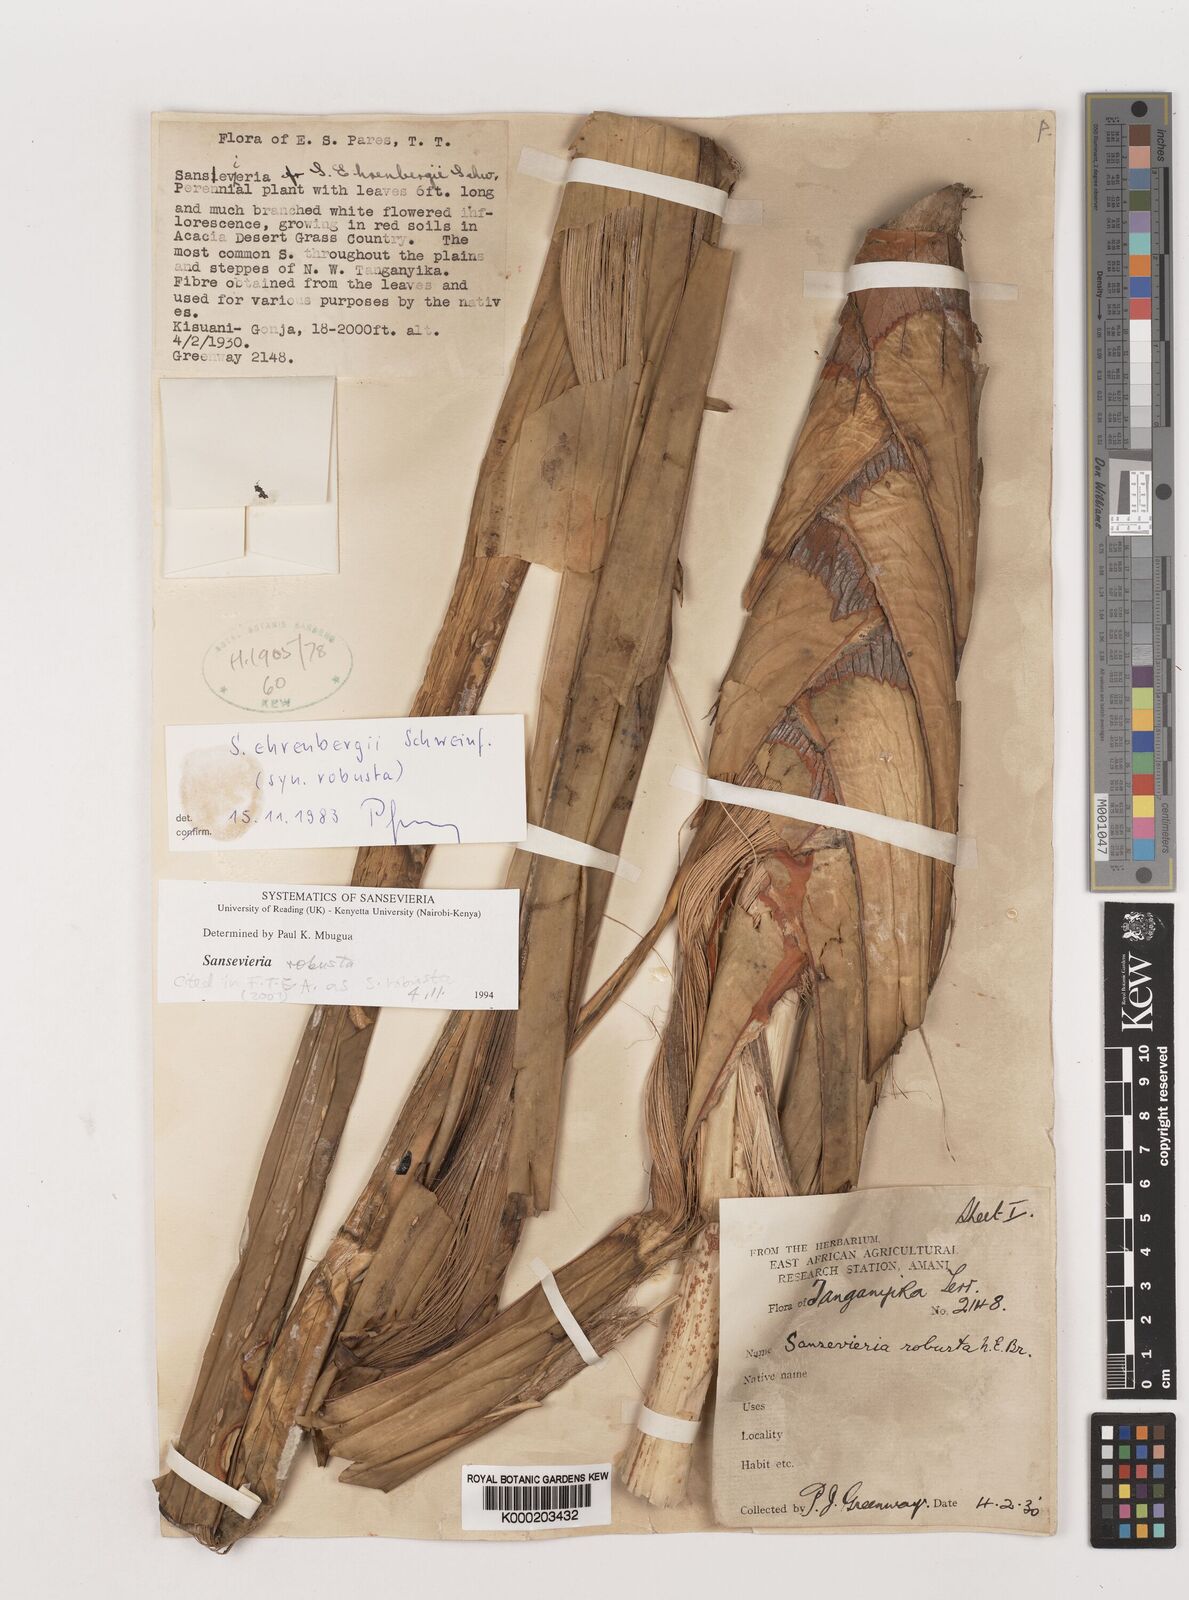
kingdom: Plantae
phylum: Tracheophyta
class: Liliopsida
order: Asparagales
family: Asparagaceae
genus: Dracaena
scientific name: Dracaena perrotii
